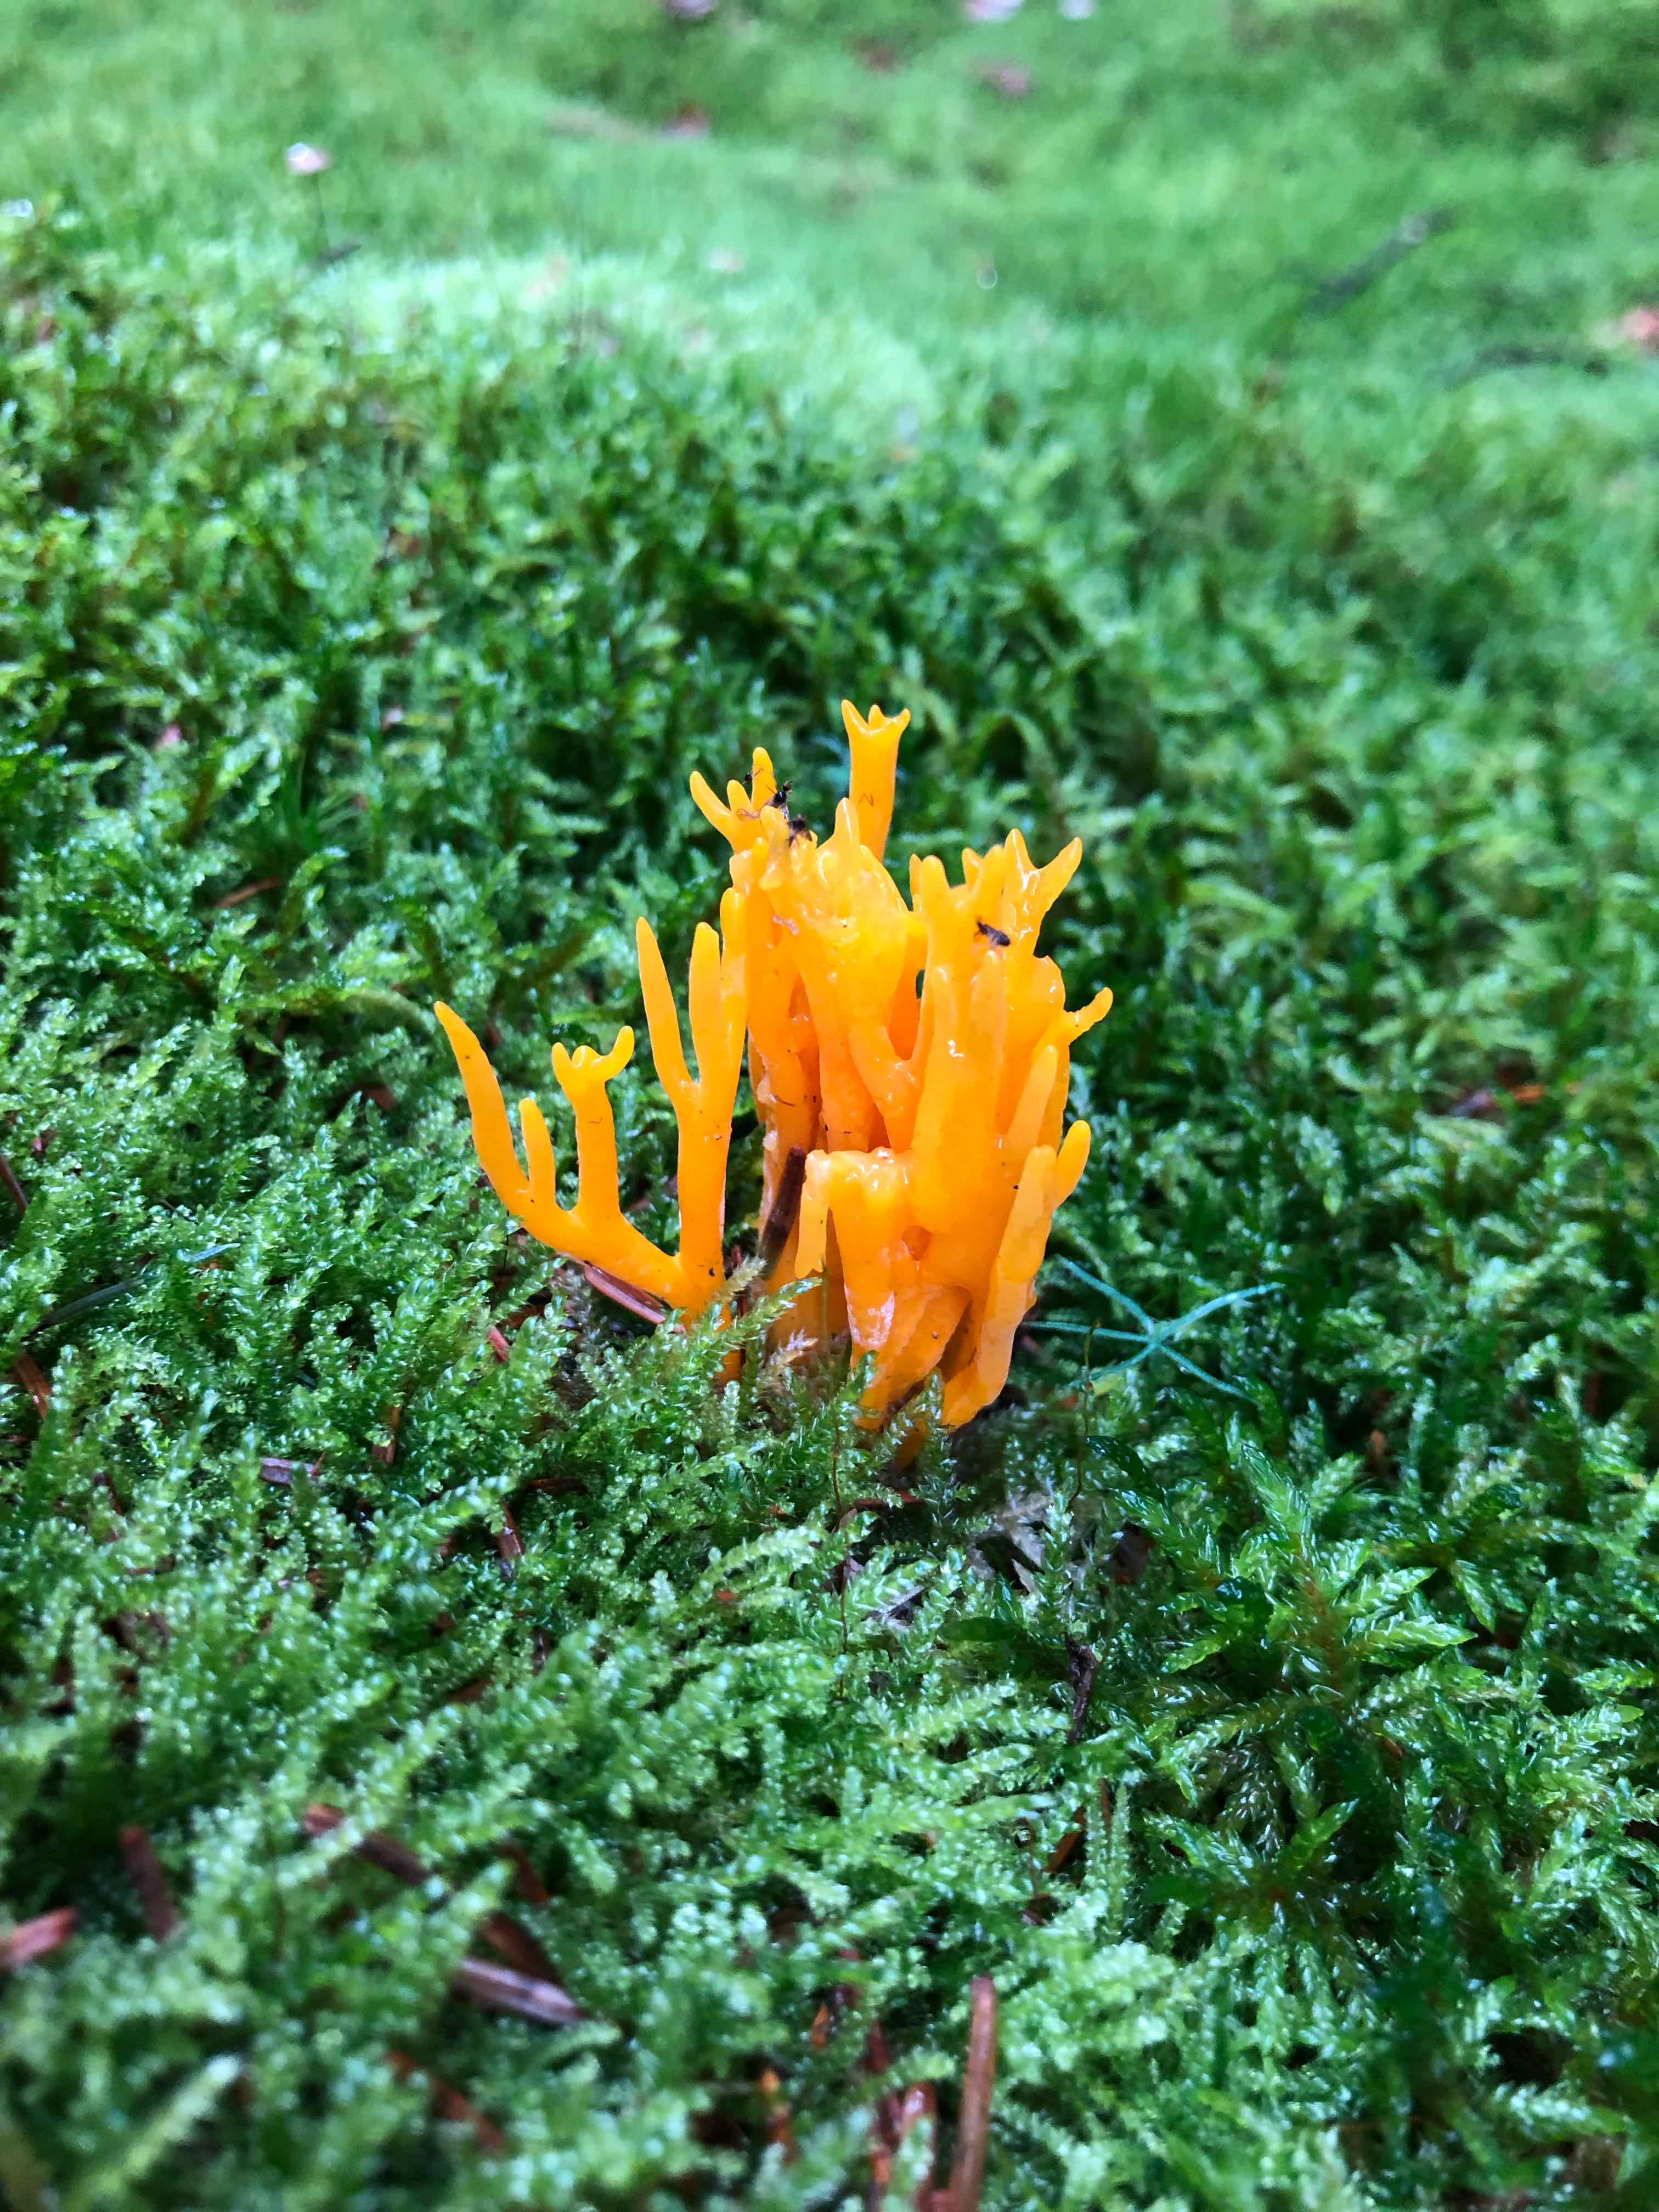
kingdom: Fungi
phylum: Basidiomycota
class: Dacrymycetes
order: Dacrymycetales
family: Dacrymycetaceae
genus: Calocera
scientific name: Calocera viscosa
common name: almindelig guldgaffel
